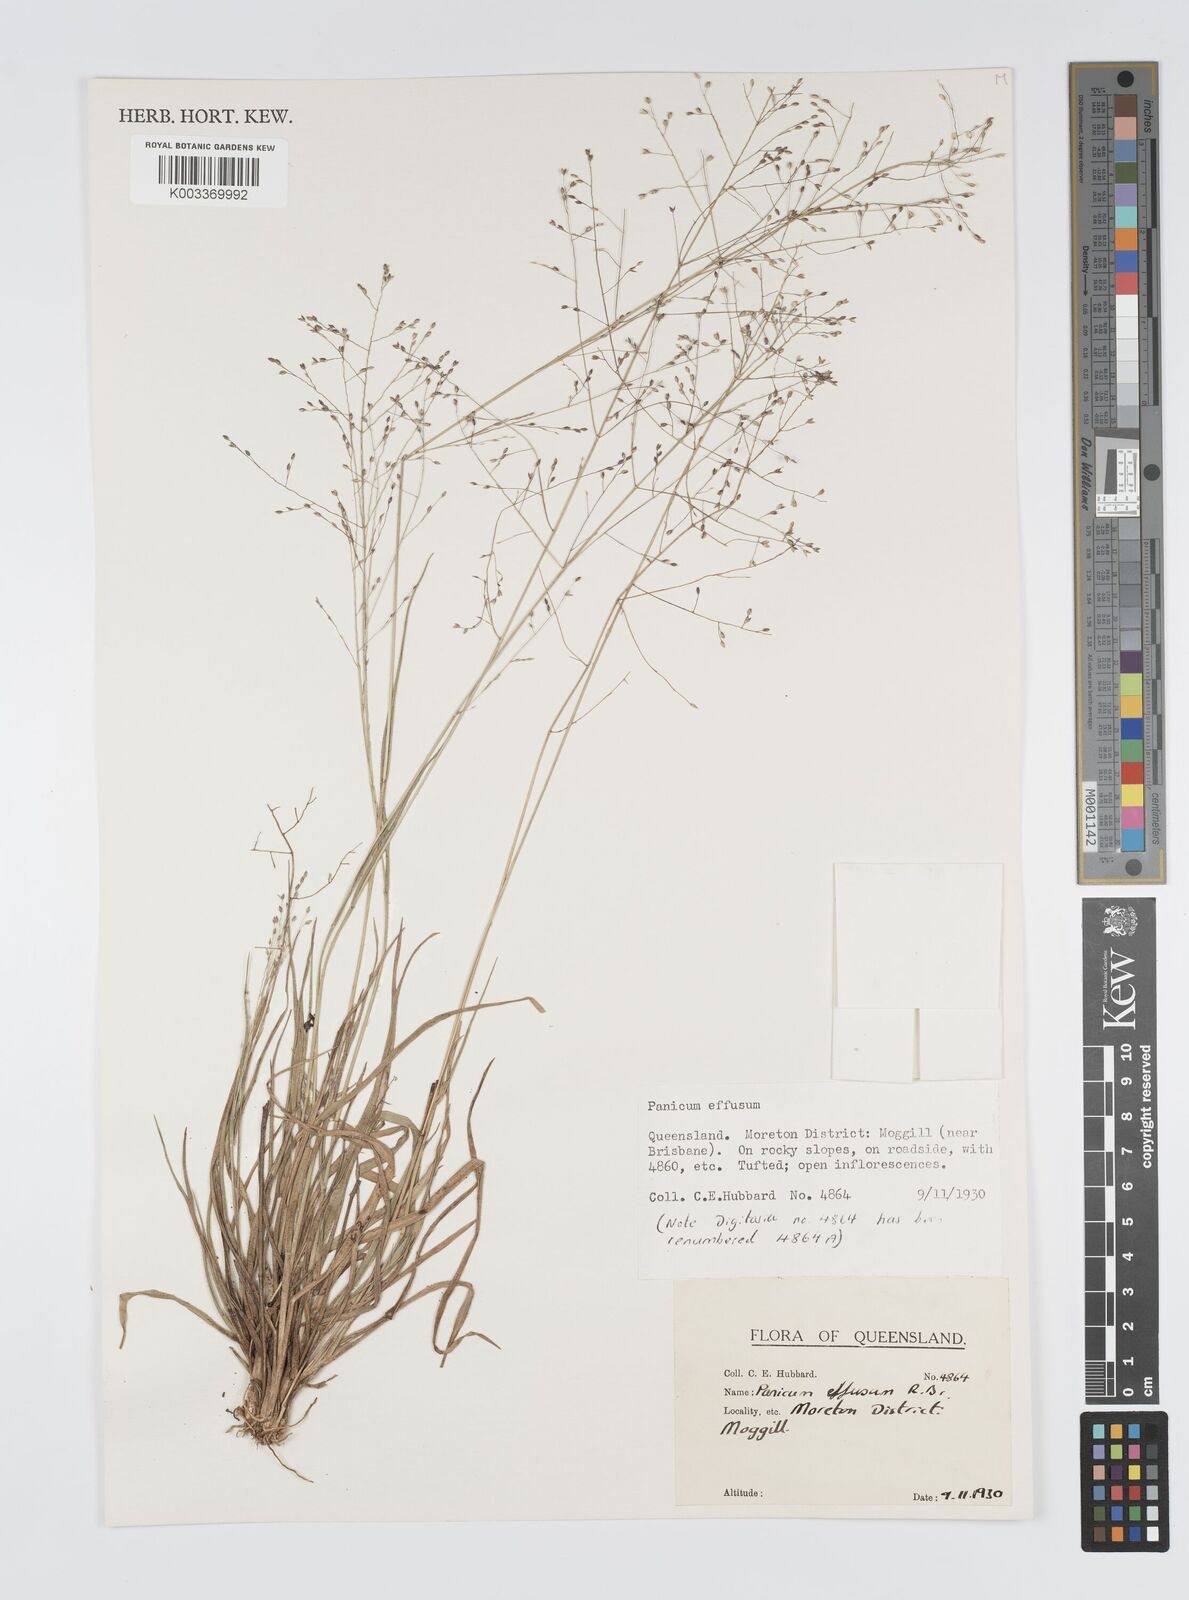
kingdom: Plantae
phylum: Tracheophyta
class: Liliopsida
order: Poales
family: Poaceae
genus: Panicum
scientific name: Panicum effusum
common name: Hairy panic grass
